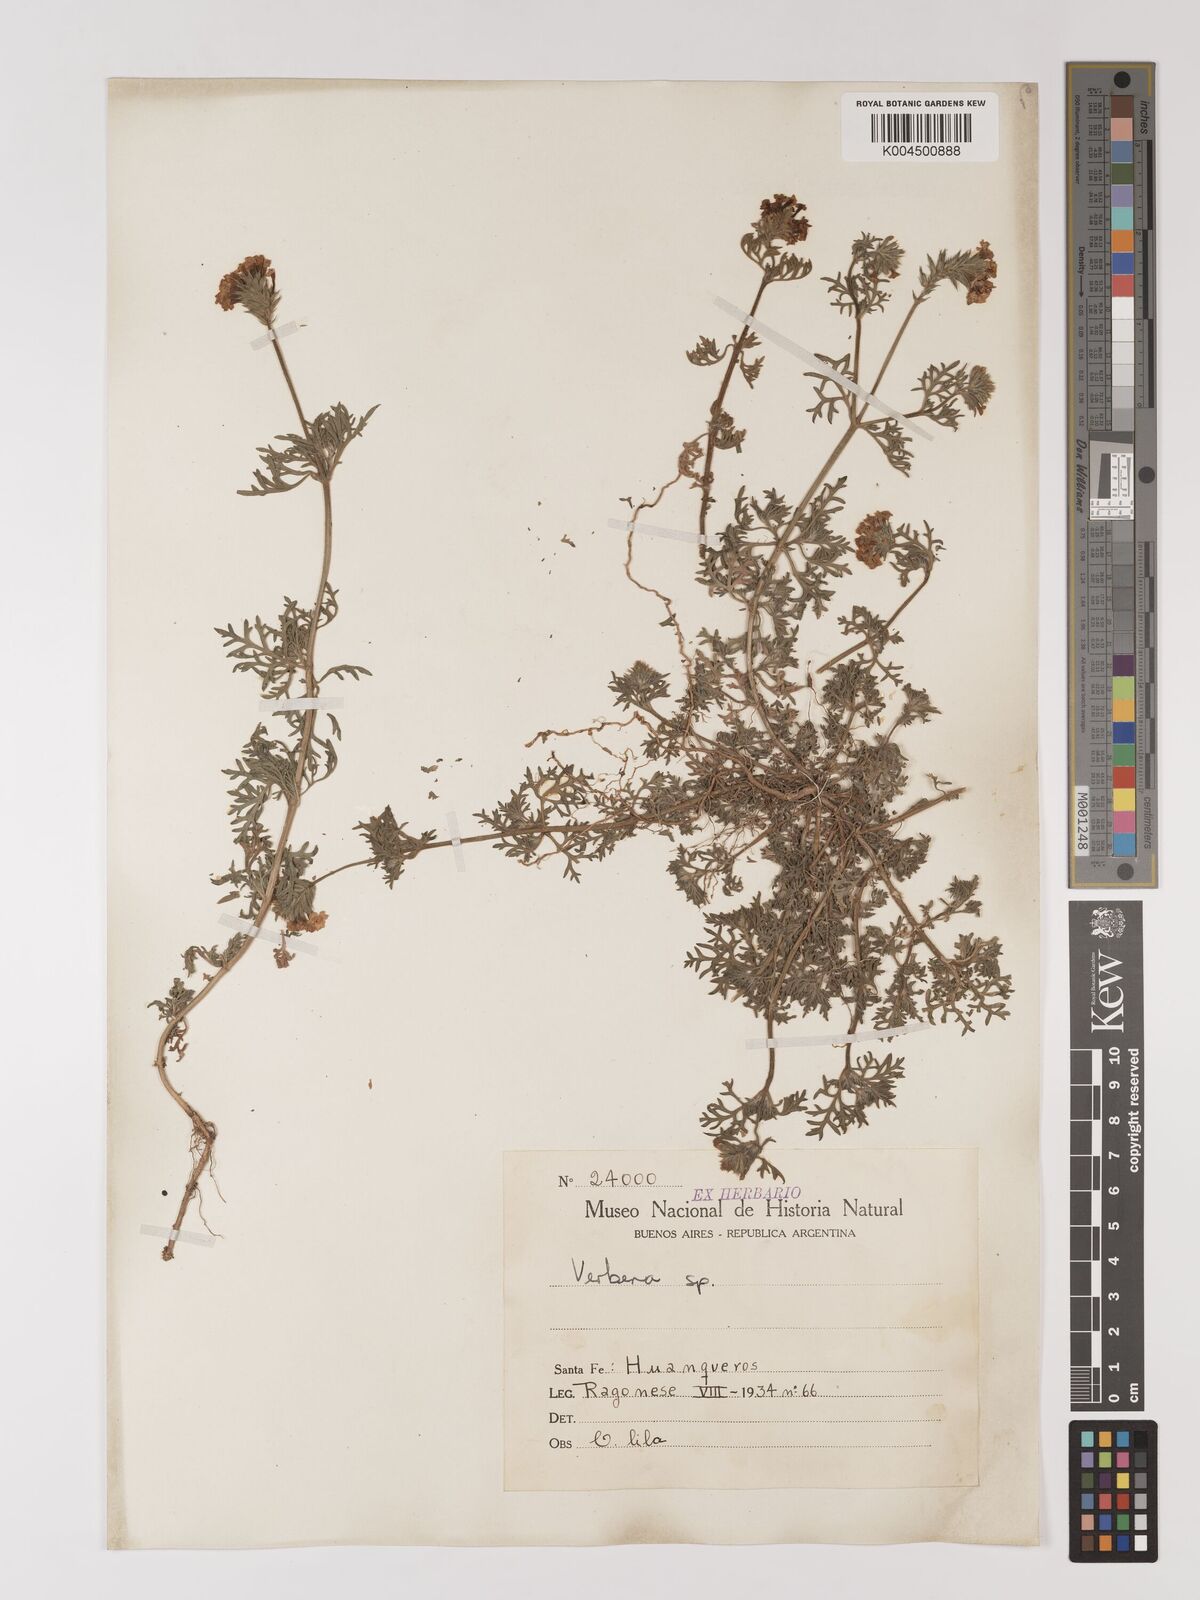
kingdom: Plantae
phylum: Tracheophyta
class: Magnoliopsida
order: Lamiales
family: Verbenaceae
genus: Verbena
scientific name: Verbena
